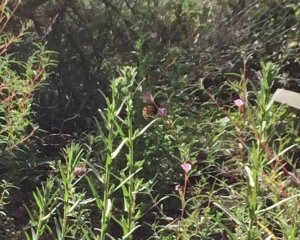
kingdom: Animalia
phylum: Arthropoda
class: Insecta
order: Lepidoptera
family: Papilionidae
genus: Battus
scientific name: Battus philenor
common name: Pipevine Swallowtail
